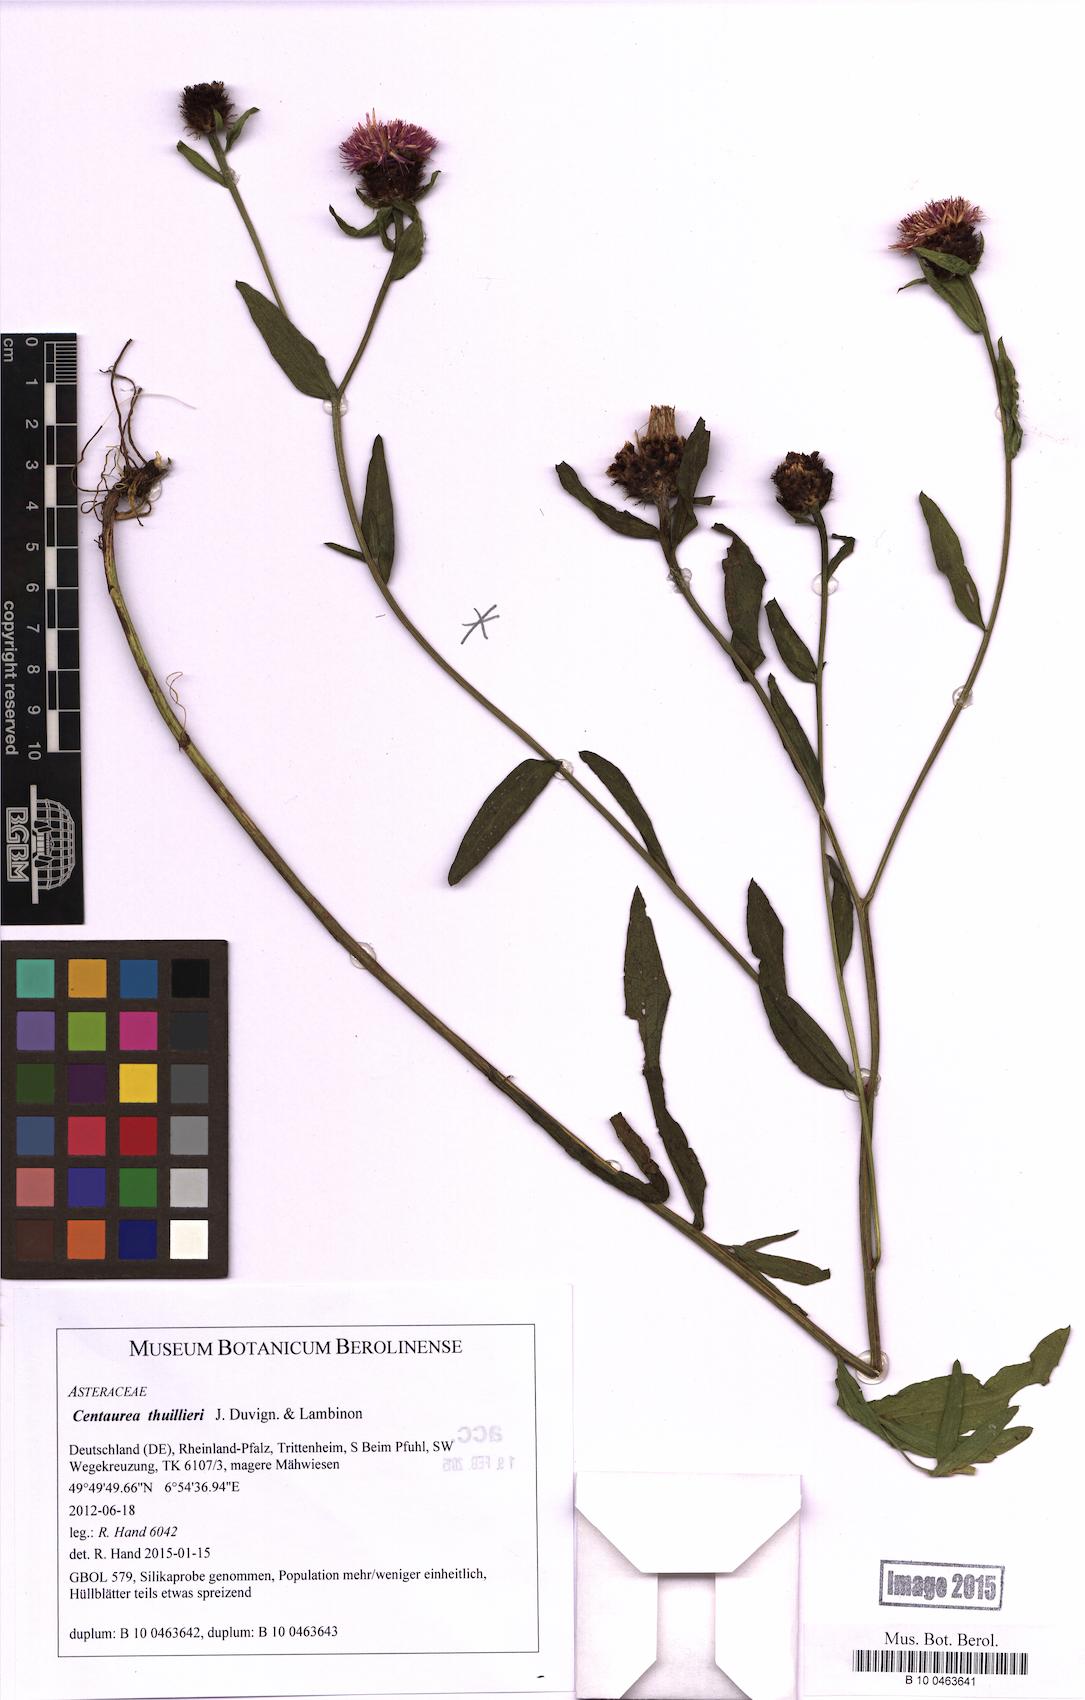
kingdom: Plantae
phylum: Tracheophyta
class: Magnoliopsida
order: Asterales
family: Asteraceae
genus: Centaurea
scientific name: Centaurea thuillieri
